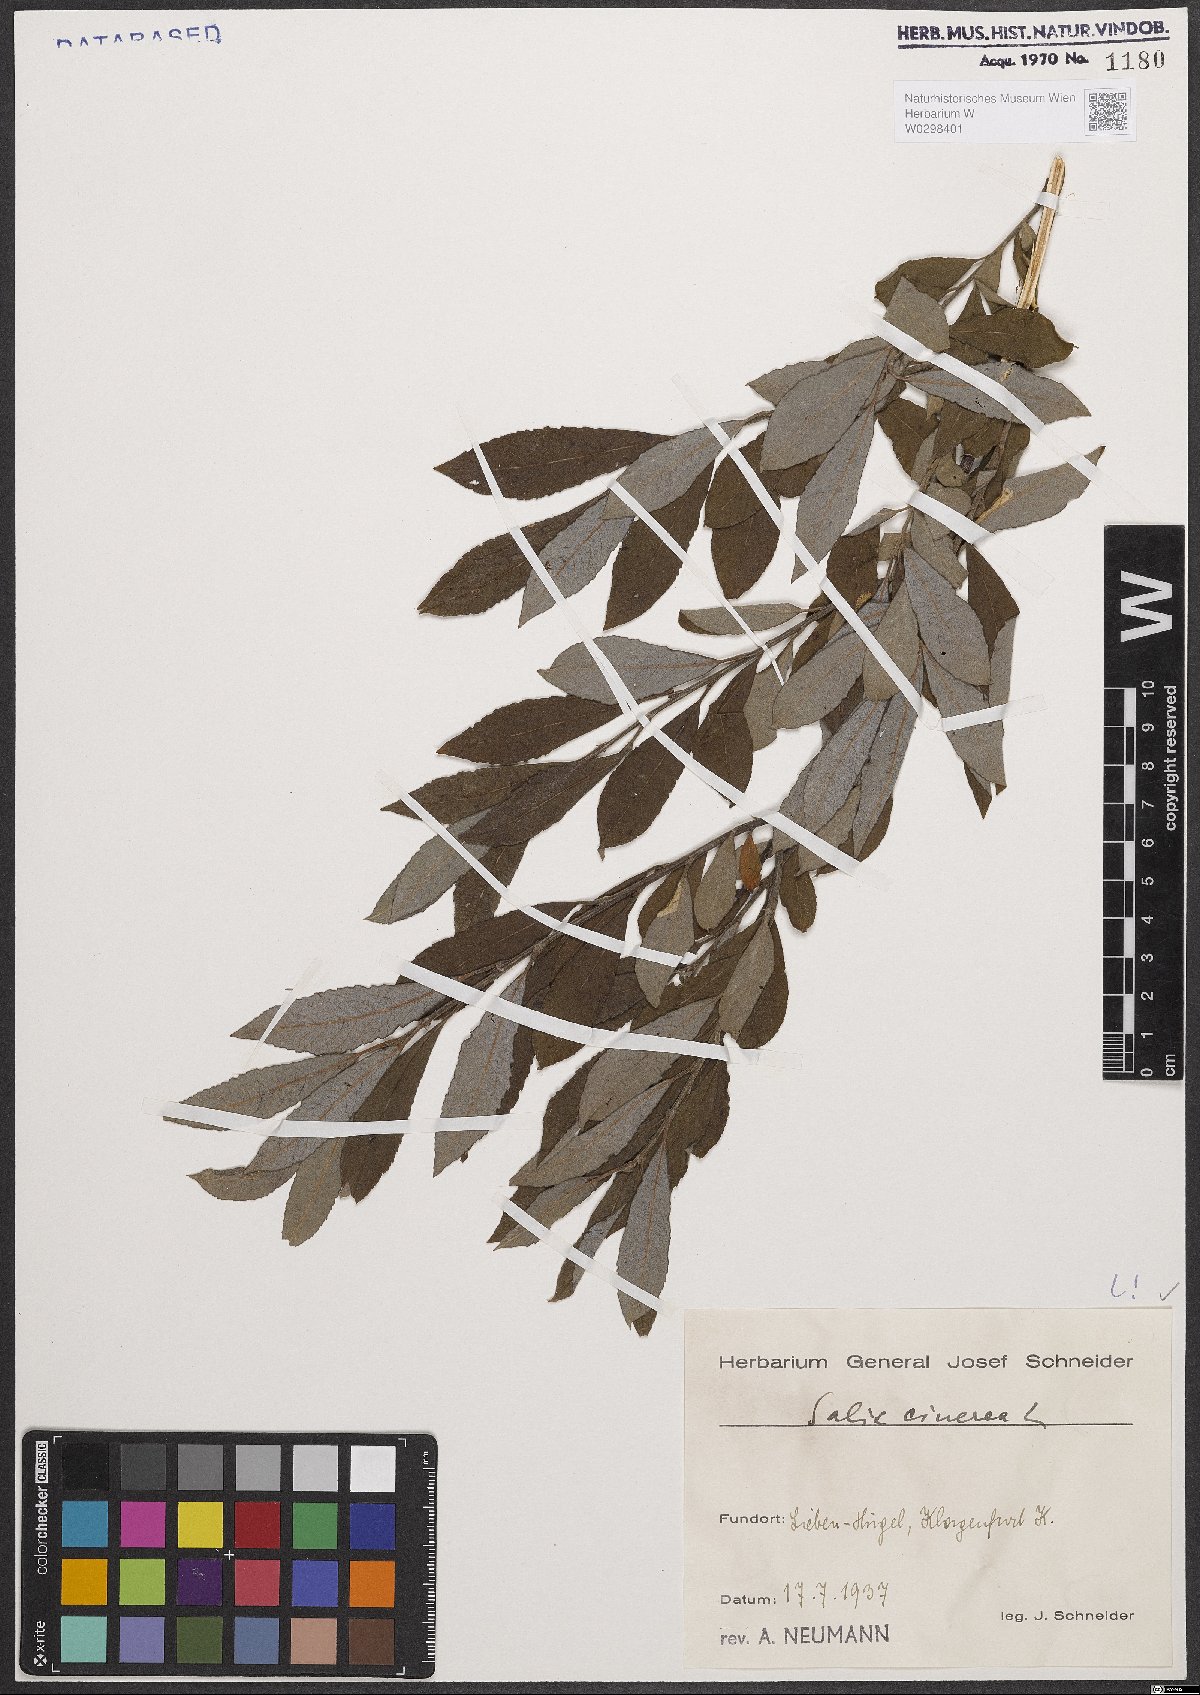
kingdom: Plantae
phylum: Tracheophyta
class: Magnoliopsida
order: Malpighiales
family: Salicaceae
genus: Salix
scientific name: Salix cinerea
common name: Common sallow
